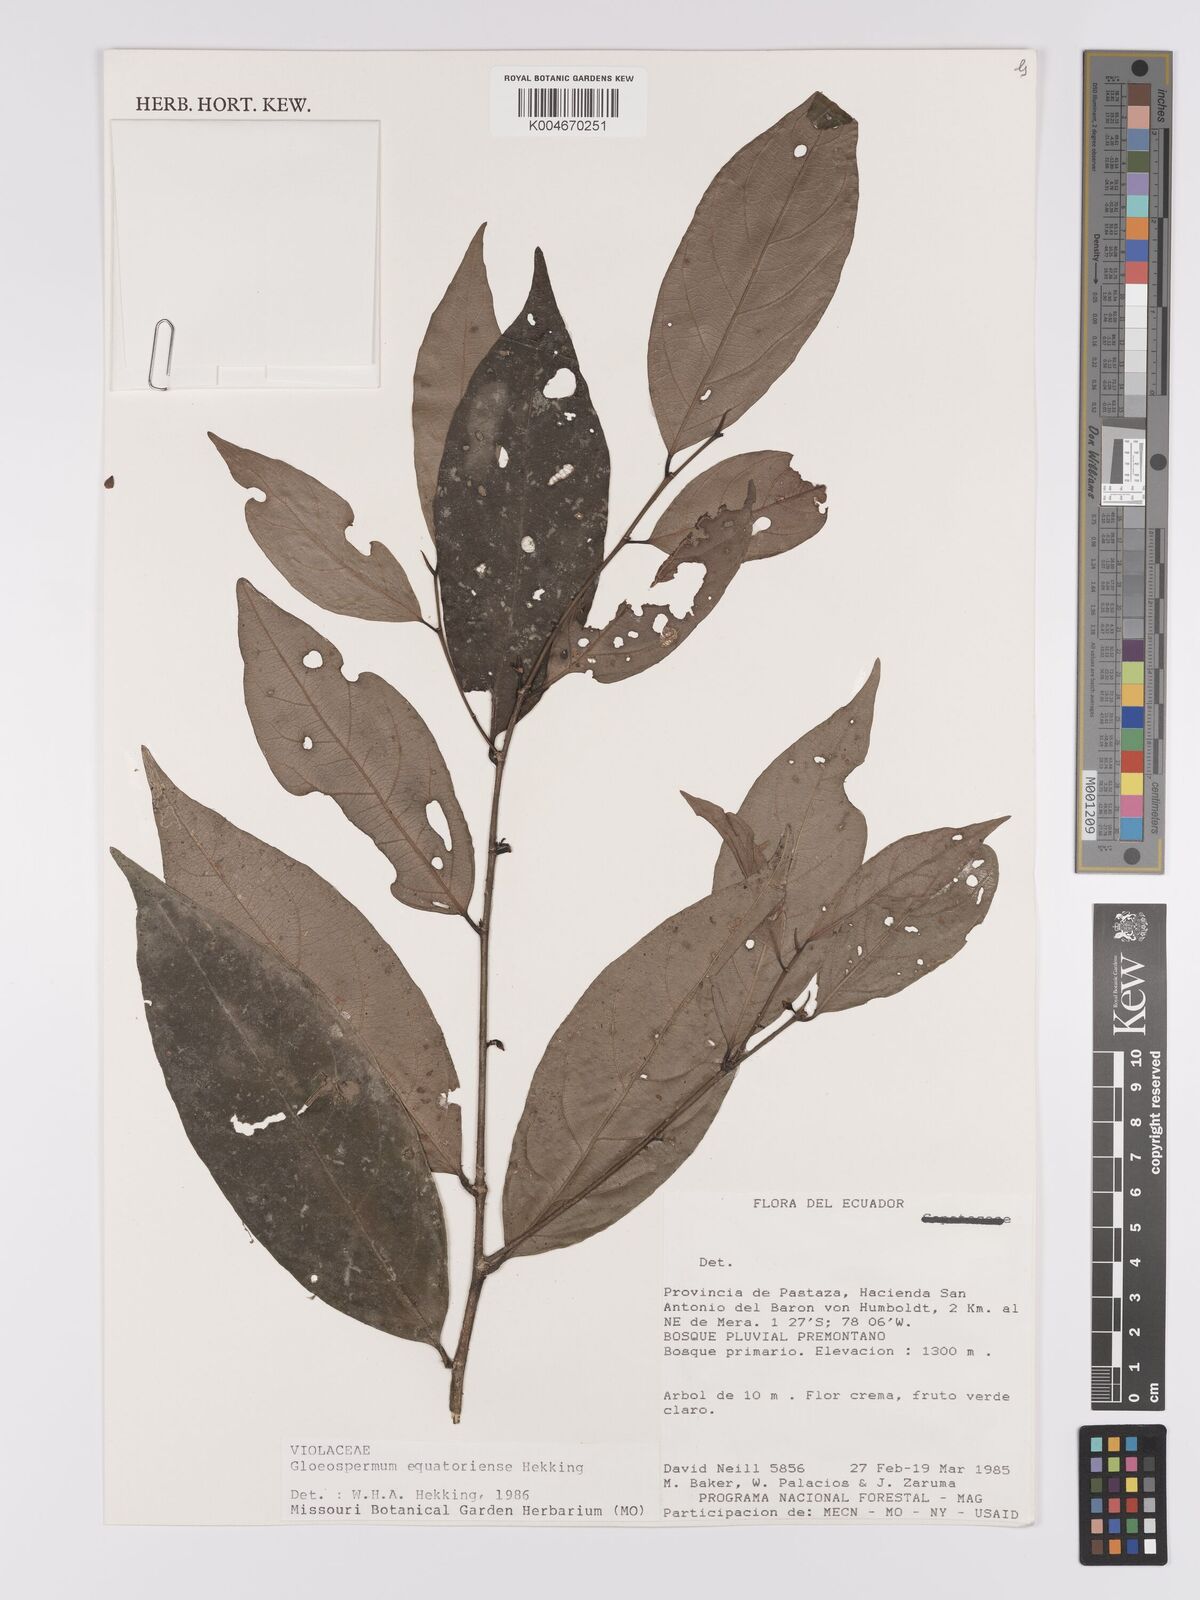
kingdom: Plantae
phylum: Tracheophyta
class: Magnoliopsida
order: Malpighiales
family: Violaceae
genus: Gloeospermum
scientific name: Gloeospermum equatoriense
